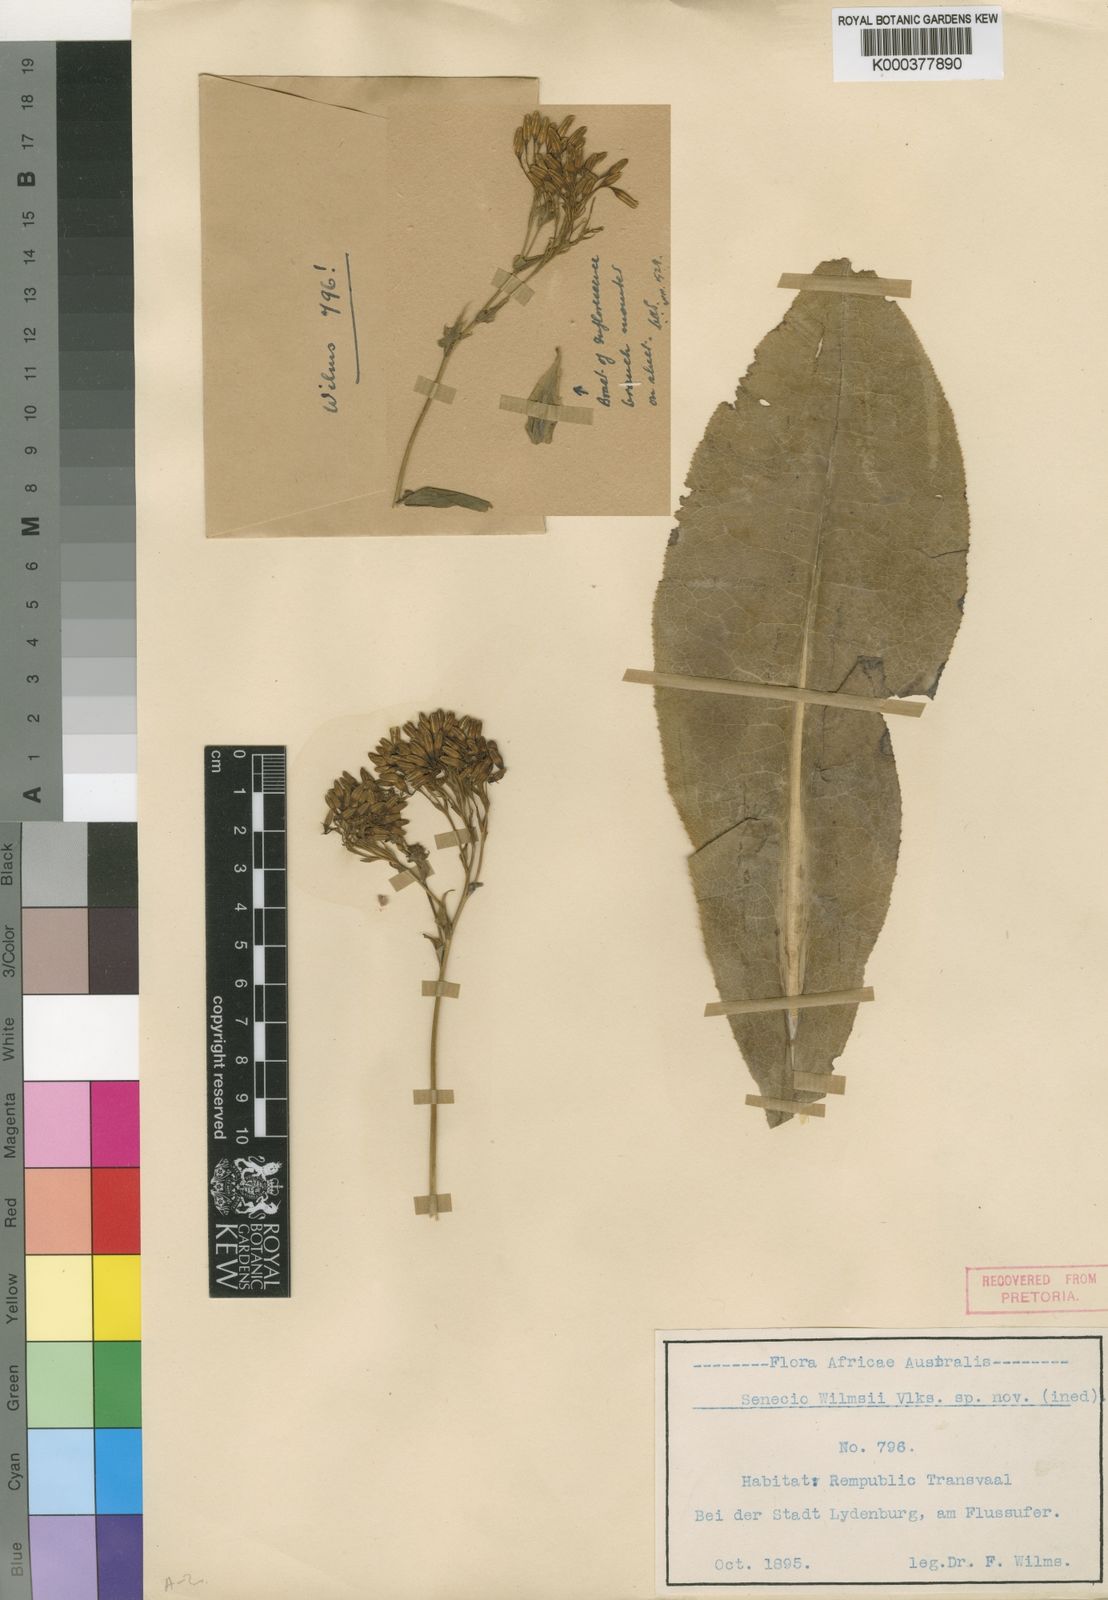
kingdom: Plantae
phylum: Tracheophyta
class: Magnoliopsida
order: Asterales
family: Asteraceae
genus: Senecio
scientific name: Senecio isatidoides
